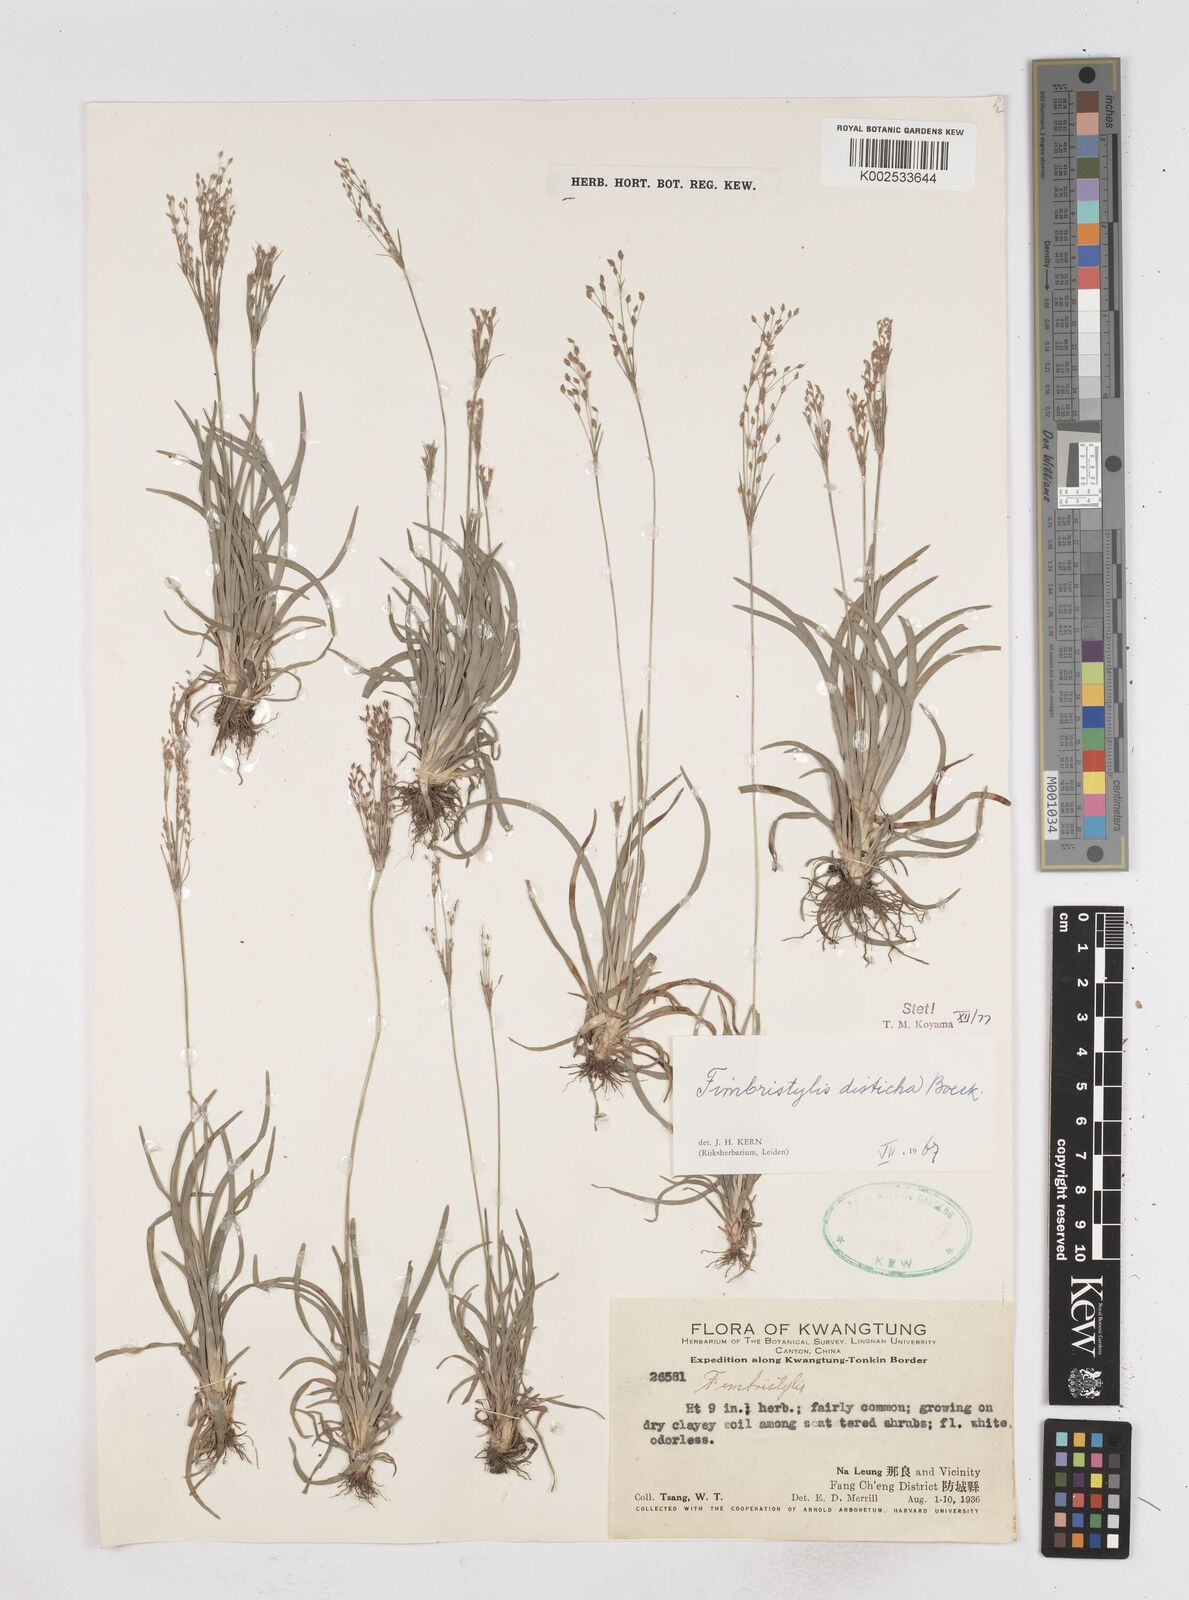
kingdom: Plantae
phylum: Tracheophyta
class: Liliopsida
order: Poales
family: Cyperaceae
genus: Fimbristylis
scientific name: Fimbristylis disticha
